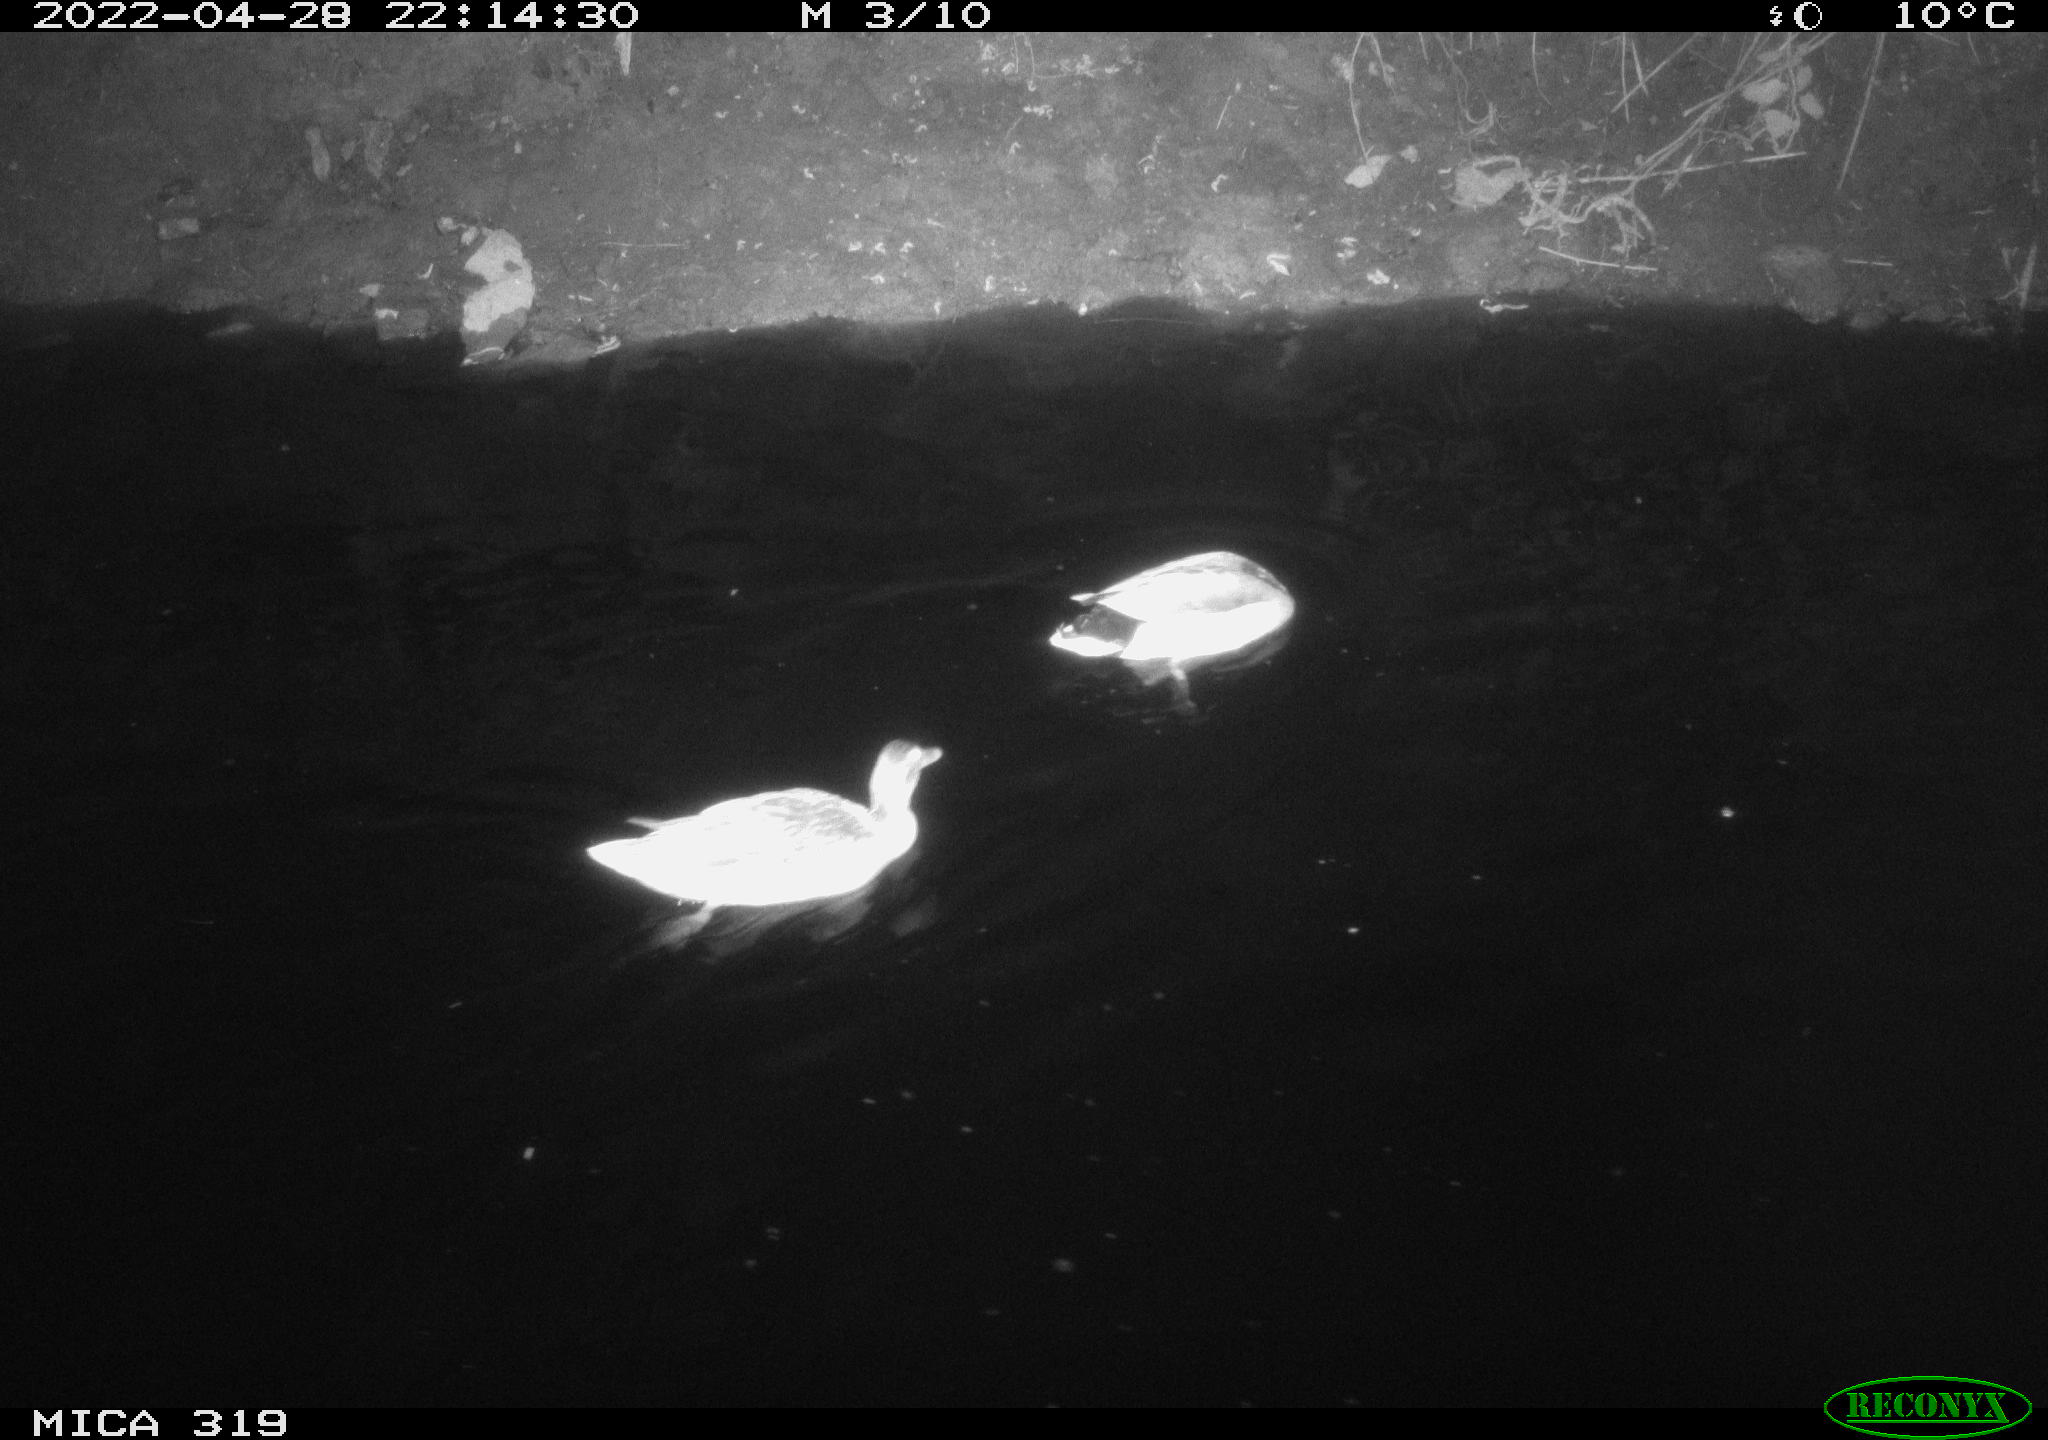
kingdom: Animalia
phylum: Chordata
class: Aves
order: Anseriformes
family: Anatidae
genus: Anas
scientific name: Anas platyrhynchos
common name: Mallard
